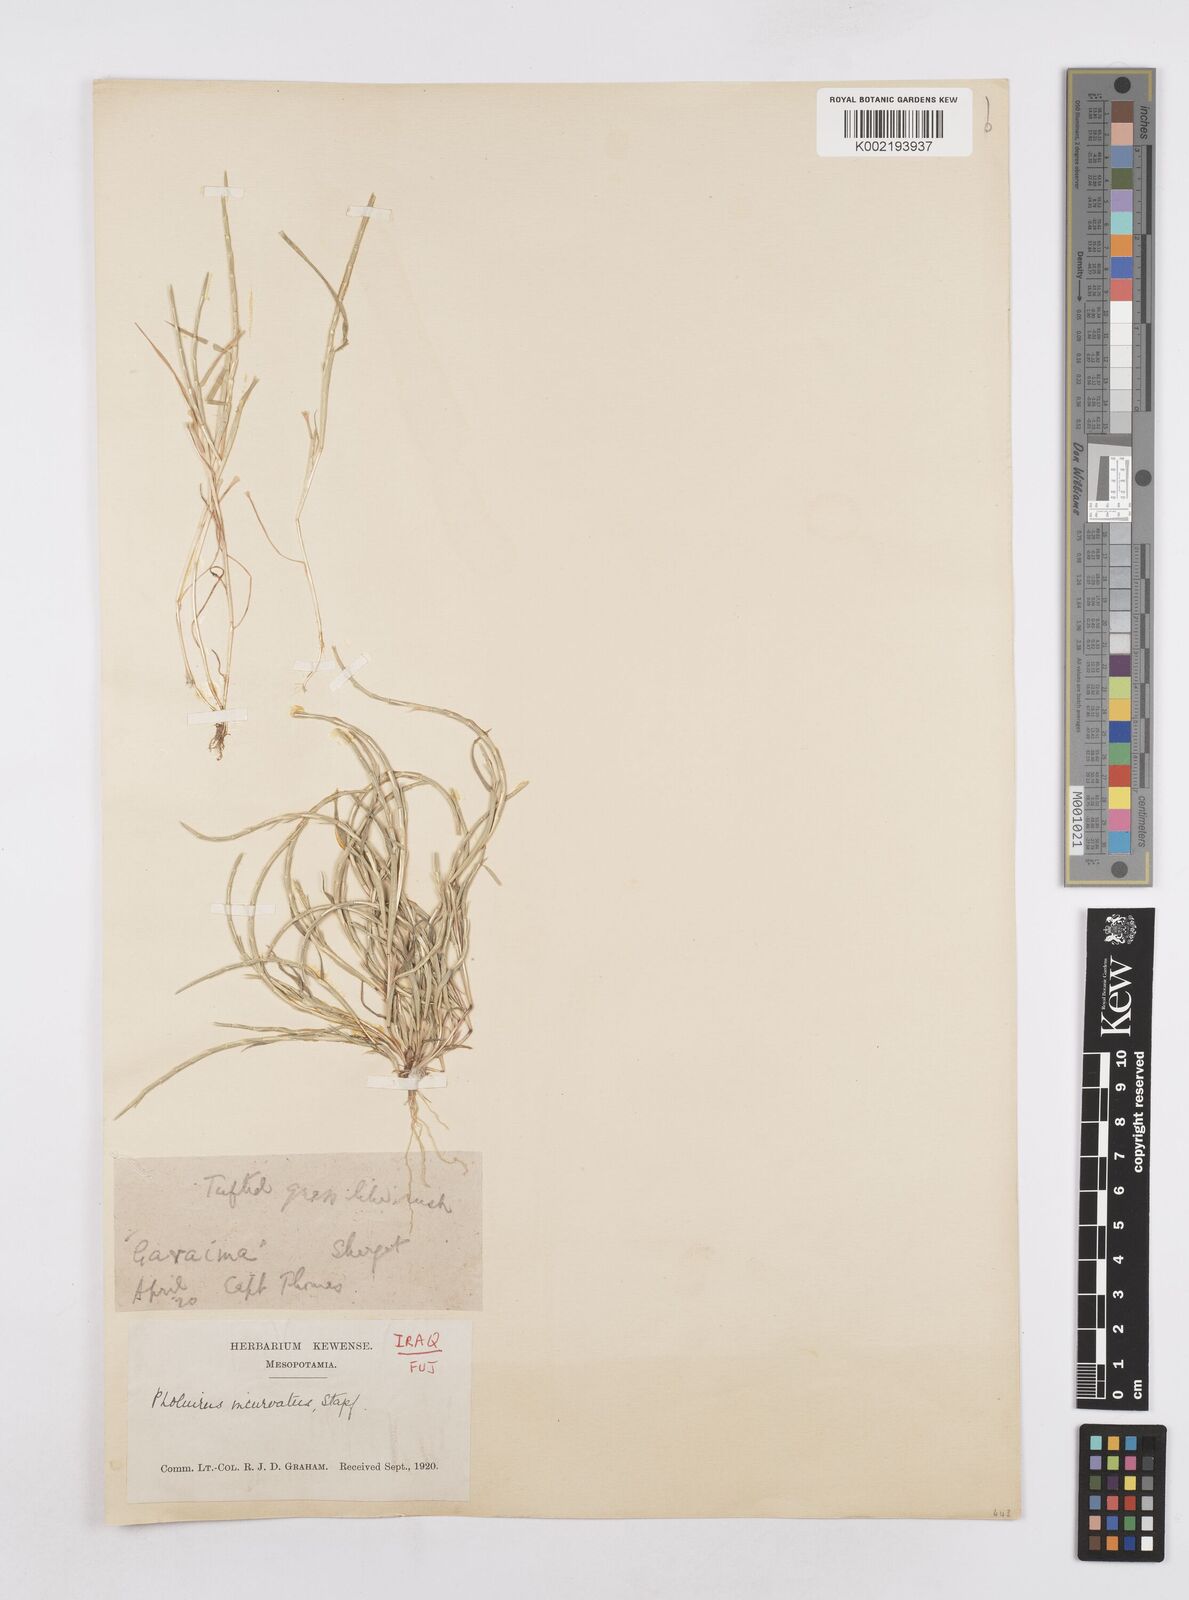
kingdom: Plantae
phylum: Tracheophyta
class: Liliopsida
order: Poales
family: Poaceae
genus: Parapholis
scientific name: Parapholis incurva
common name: Curved sicklegrass
